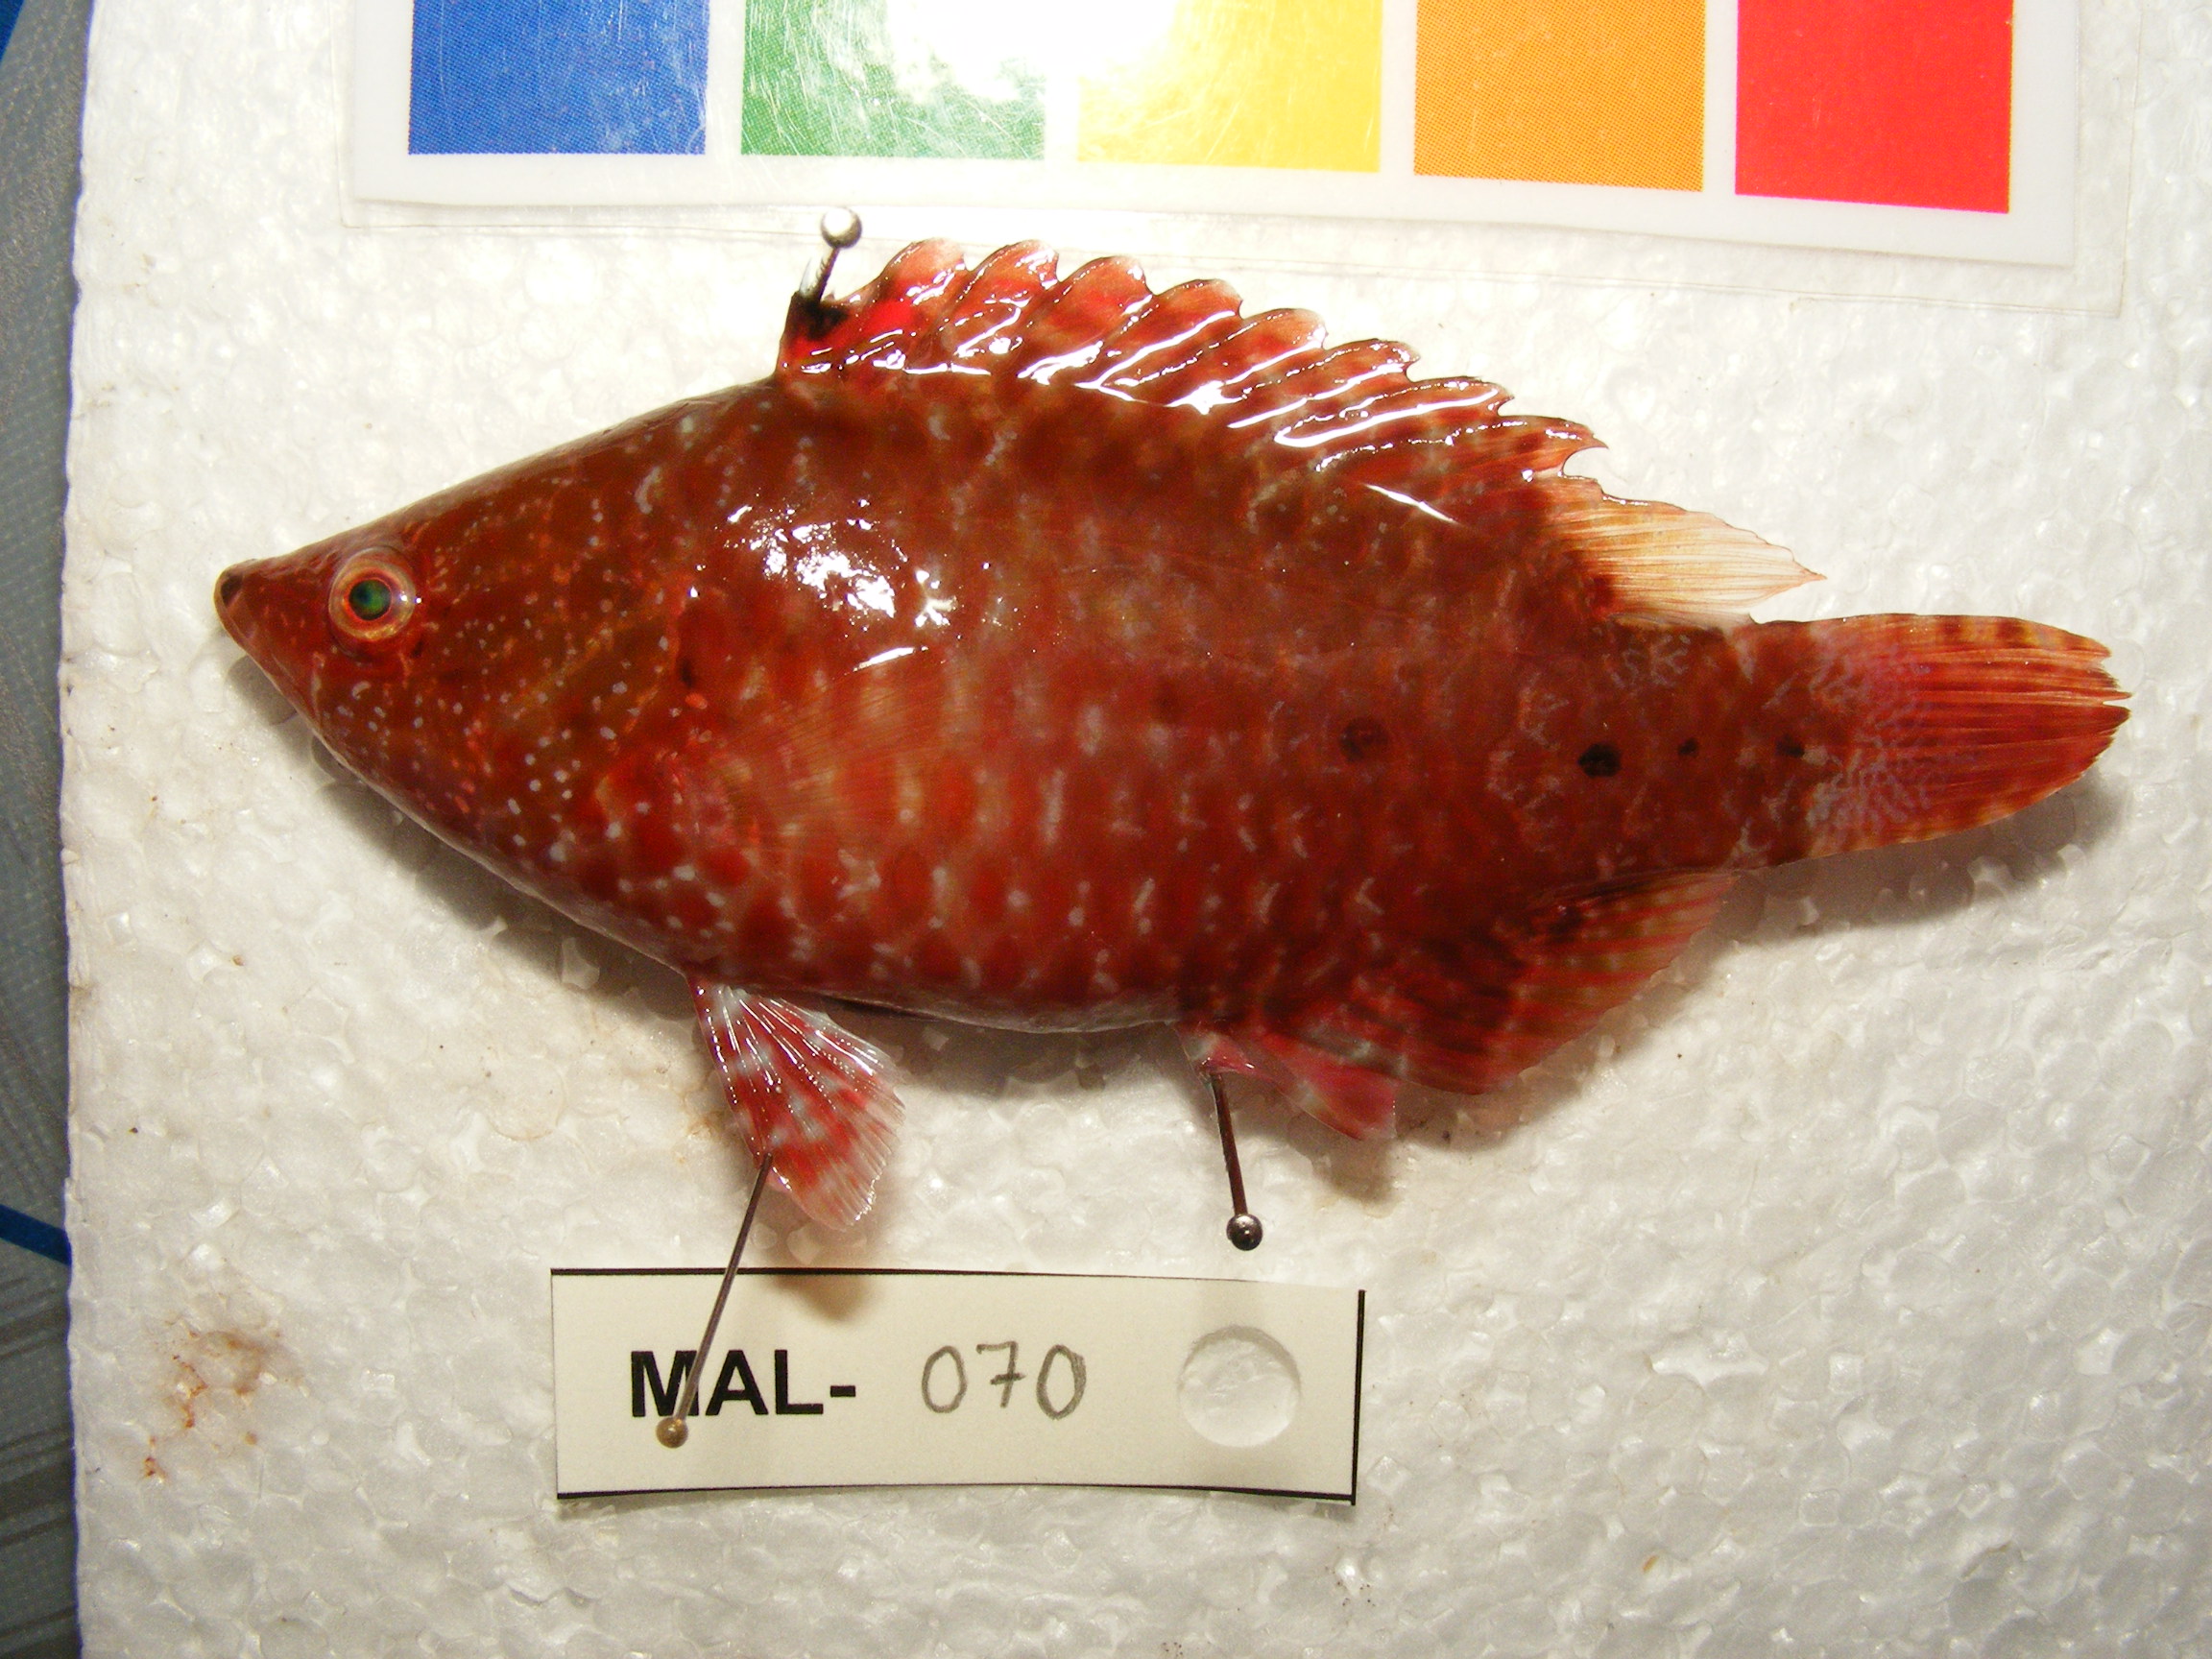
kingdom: Animalia
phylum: Chordata
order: Perciformes
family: Labridae
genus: Cheilinus
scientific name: Cheilinus oxycephalus
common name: Snooty wrasse
